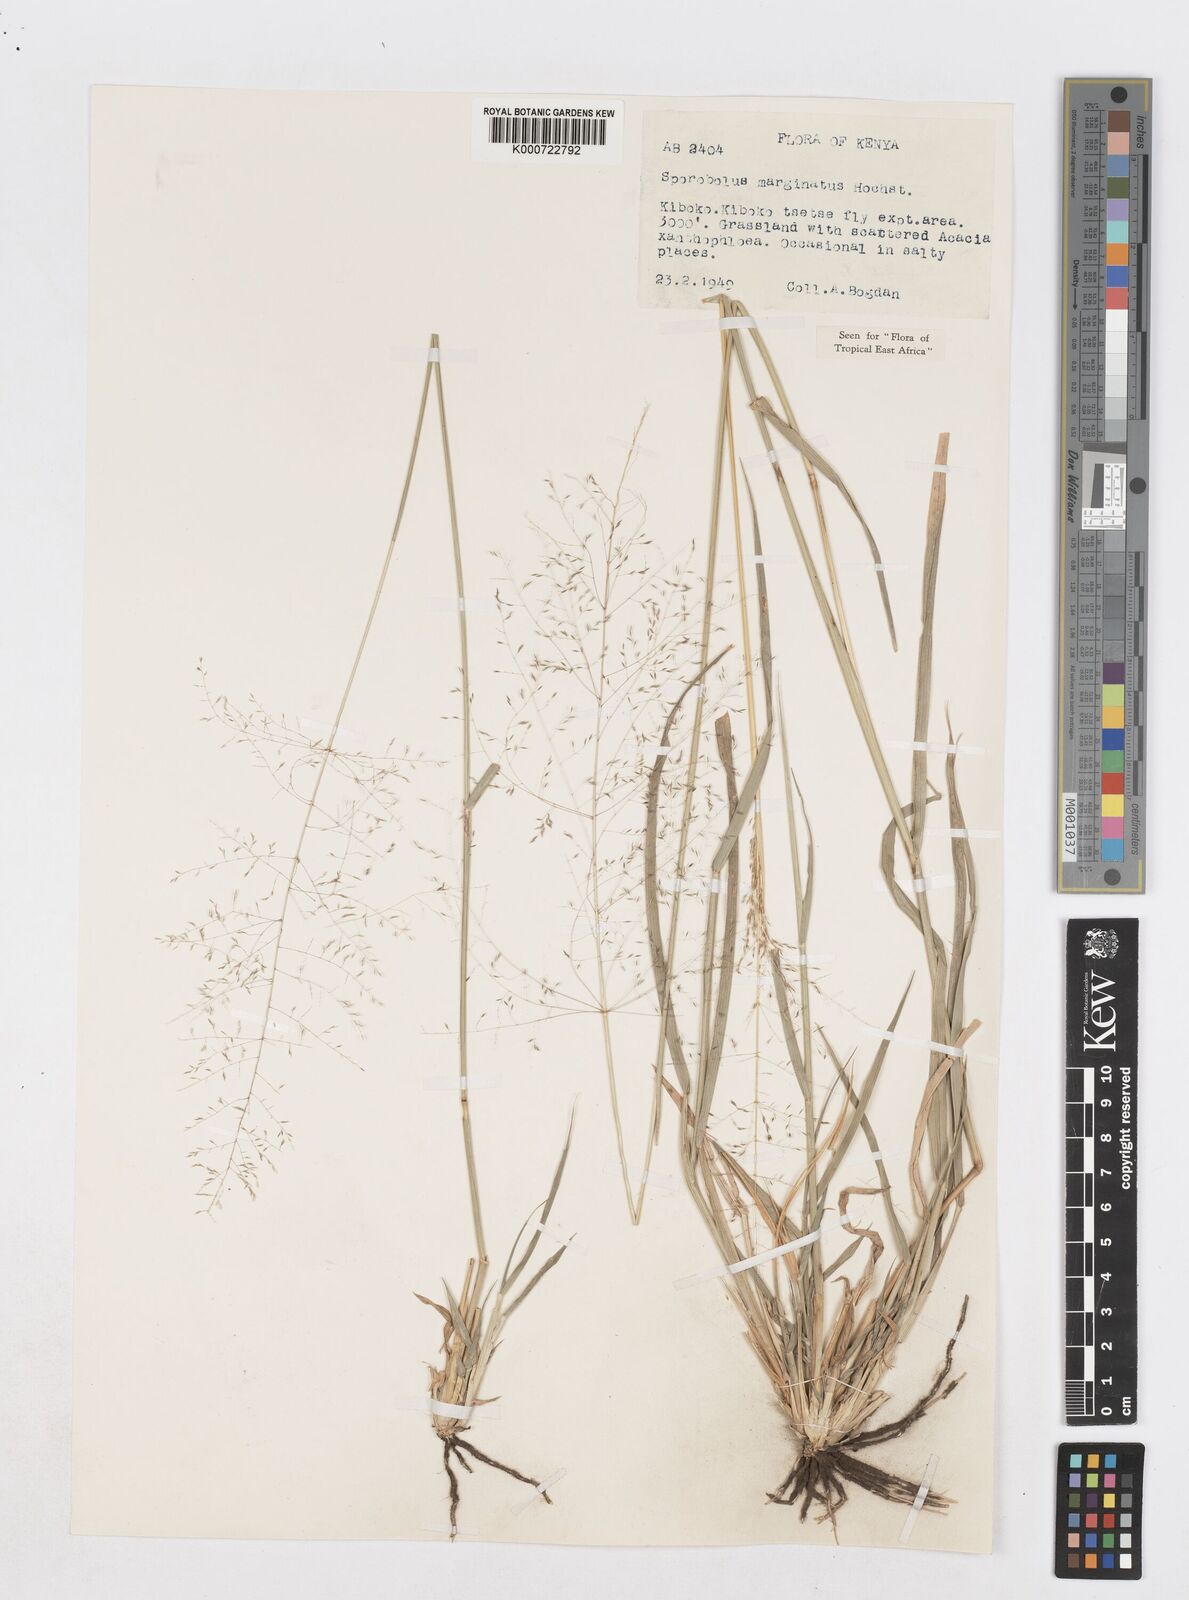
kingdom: Plantae
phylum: Tracheophyta
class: Liliopsida
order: Poales
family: Poaceae
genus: Sporobolus
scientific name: Sporobolus ioclados
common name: Pan dropseed
